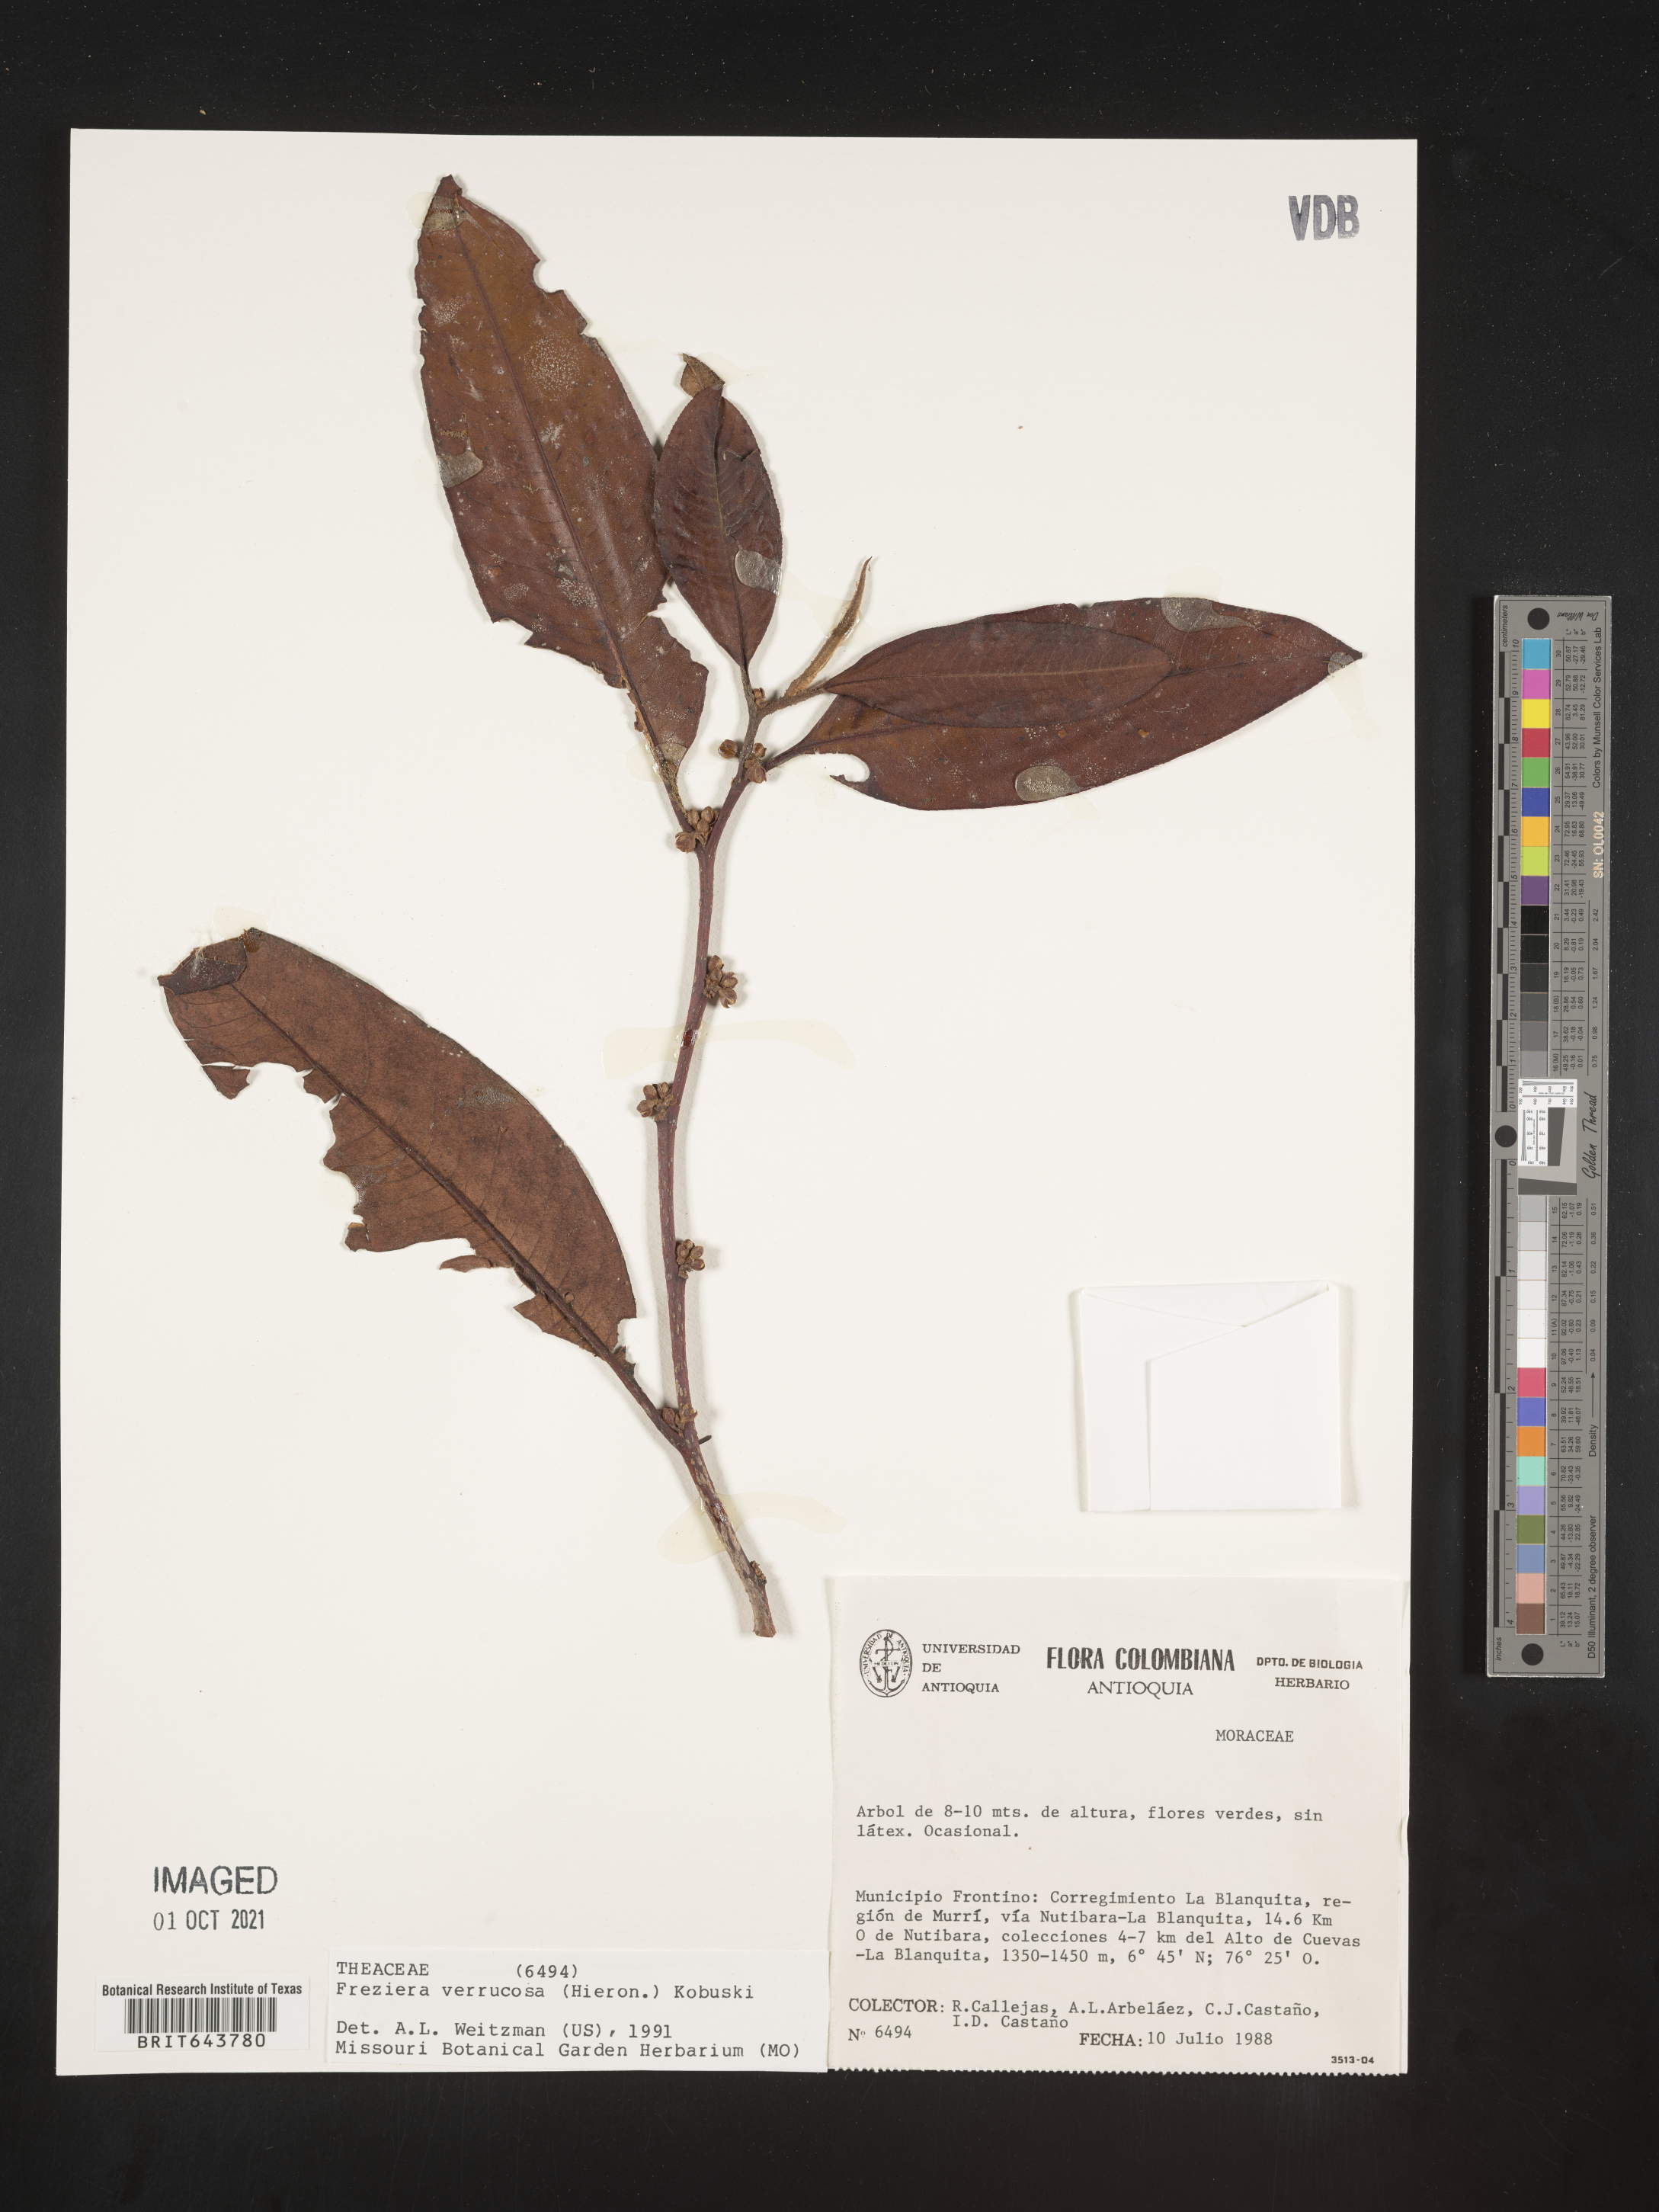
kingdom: Plantae
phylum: Tracheophyta
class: Magnoliopsida
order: Ericales
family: Pentaphylacaceae
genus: Freziera
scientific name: Freziera
